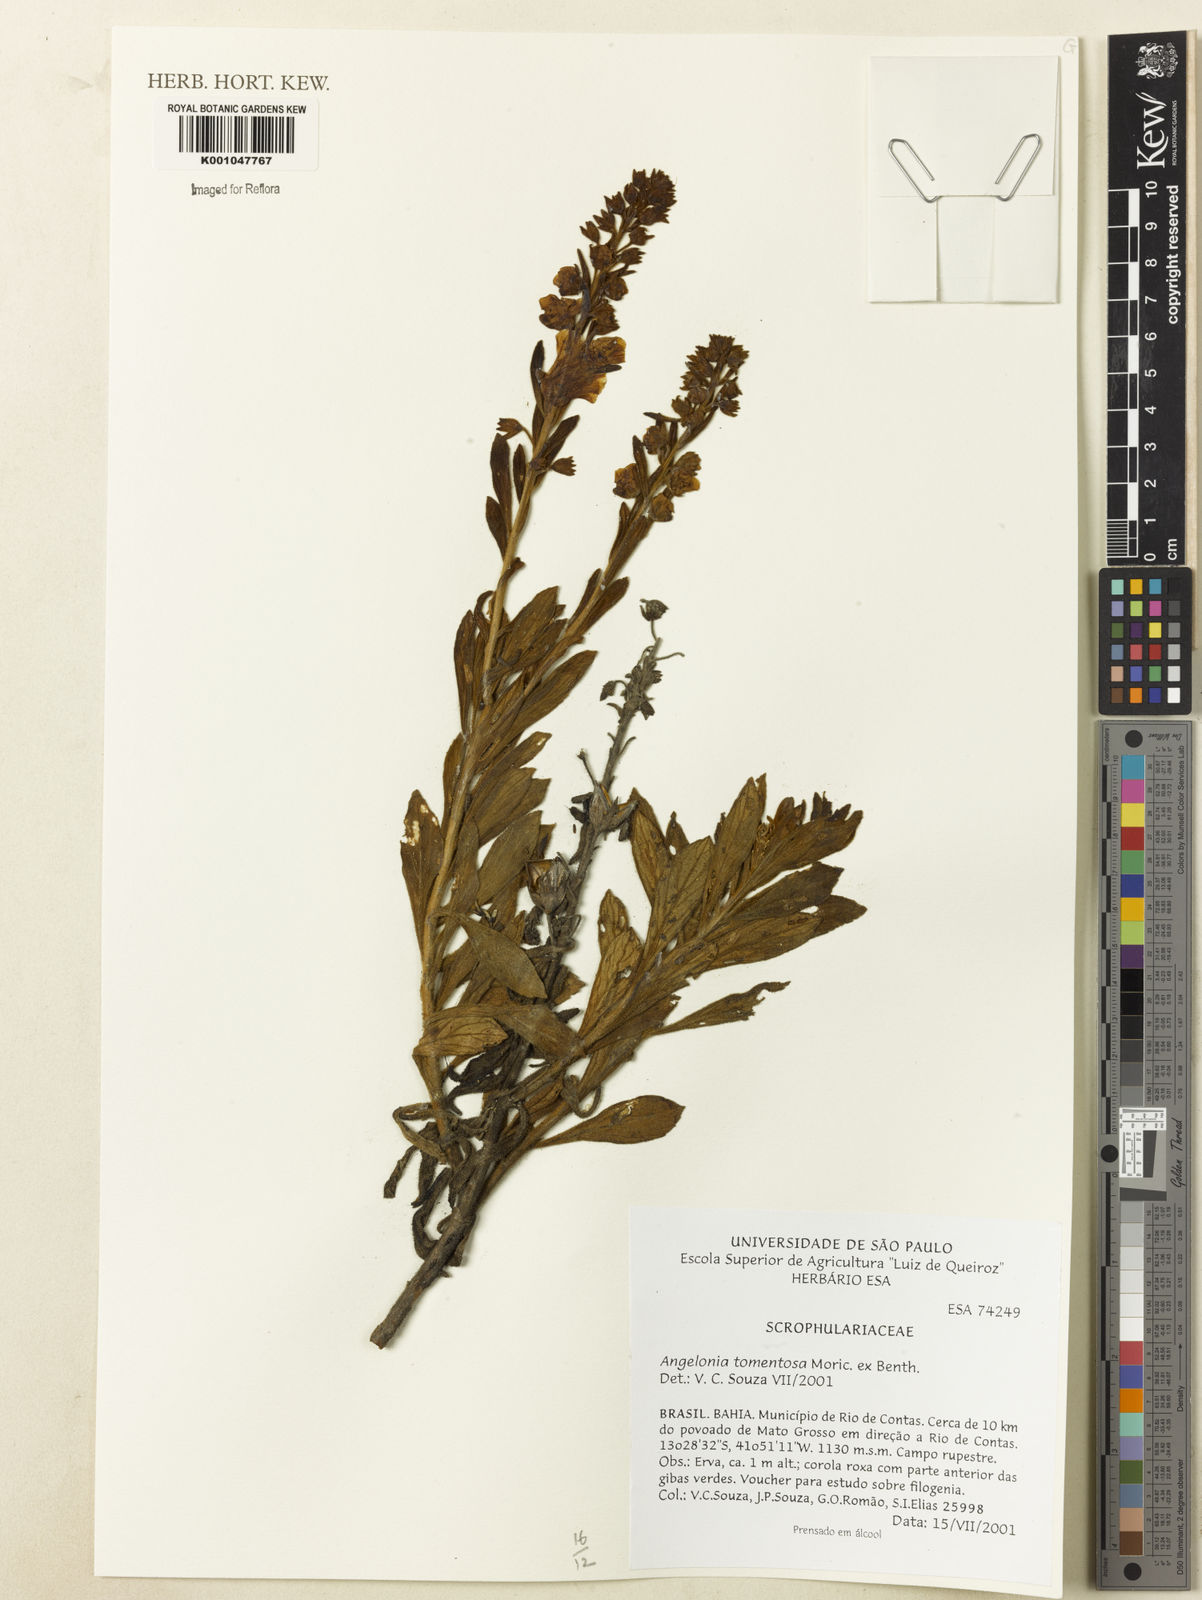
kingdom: Plantae
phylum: Tracheophyta
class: Magnoliopsida
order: Lamiales
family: Plantaginaceae
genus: Angelonia
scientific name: Angelonia tomentosa
